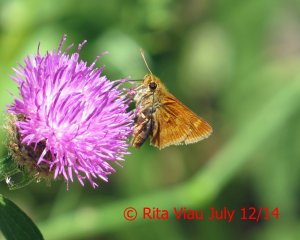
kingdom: Animalia
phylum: Arthropoda
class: Insecta
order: Lepidoptera
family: Hesperiidae
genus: Polites
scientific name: Polites
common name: Long Dash Skipper
